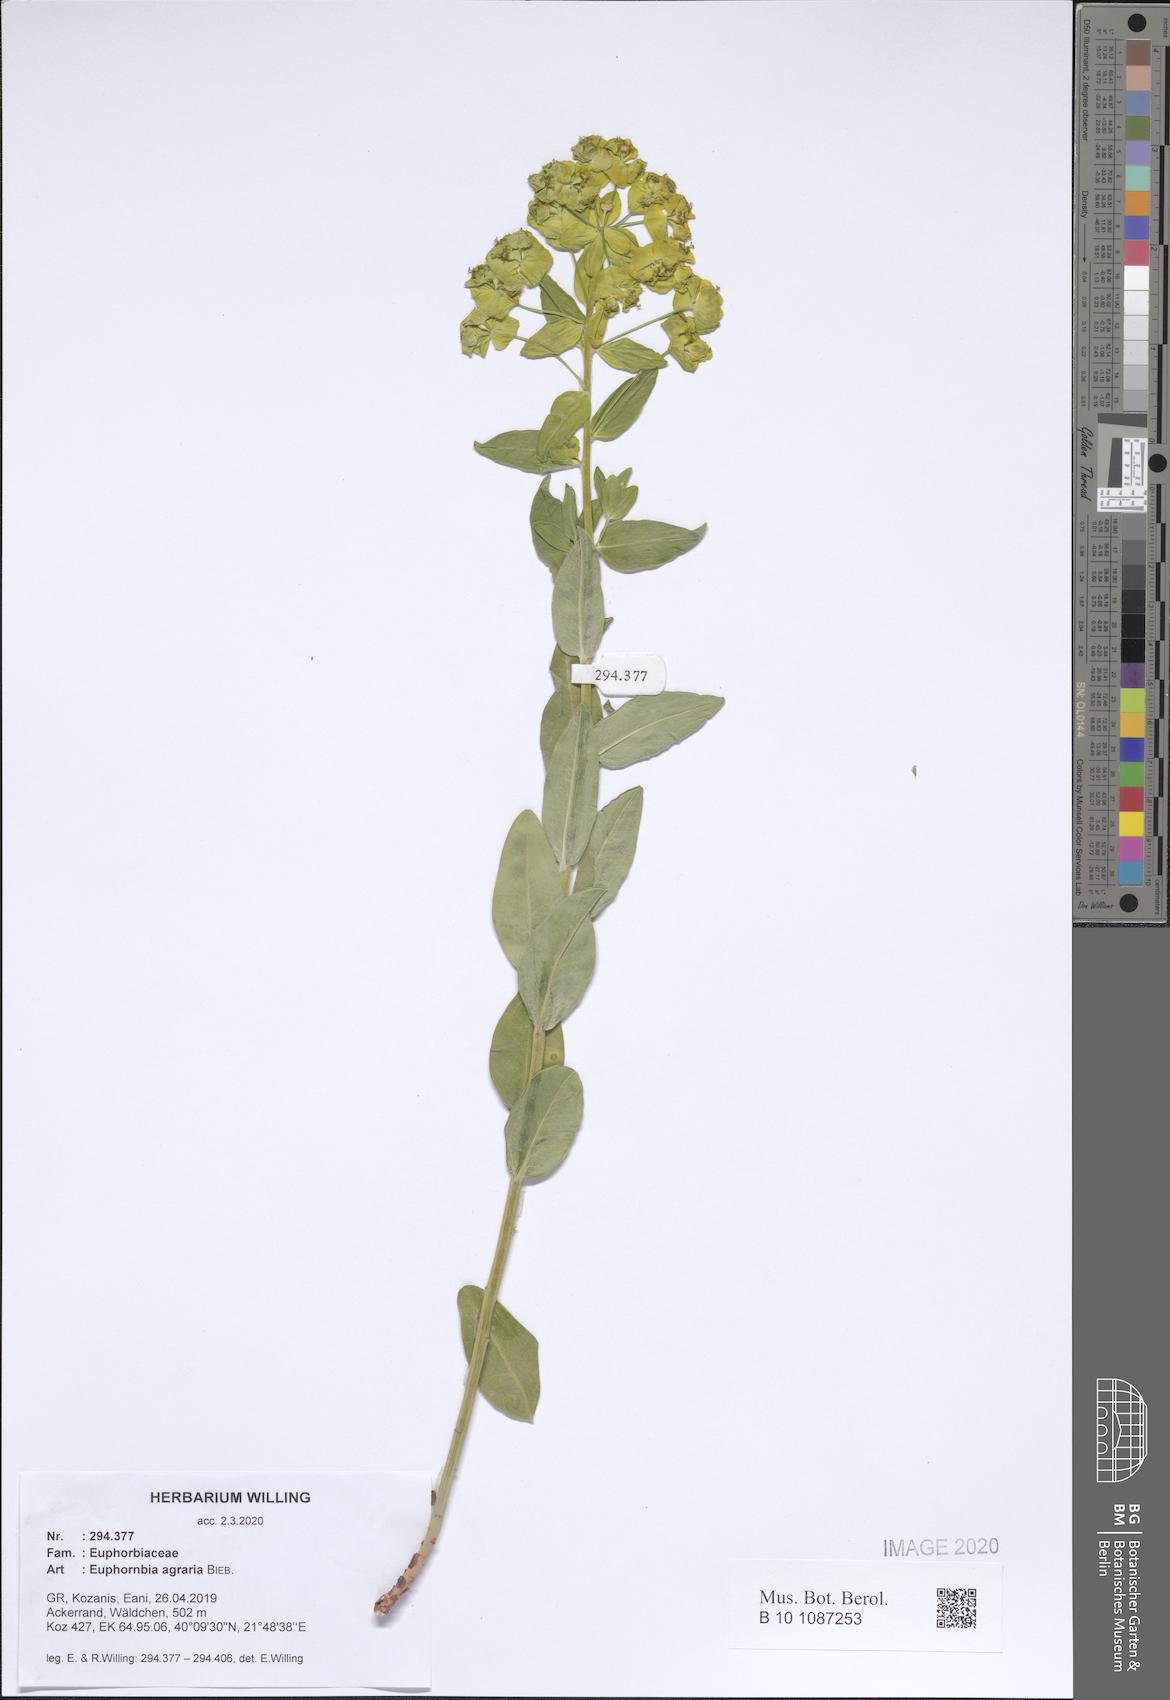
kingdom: Plantae
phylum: Tracheophyta
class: Magnoliopsida
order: Malpighiales
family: Euphorbiaceae
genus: Euphorbia
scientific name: Euphorbia agraria
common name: Urban spurge
